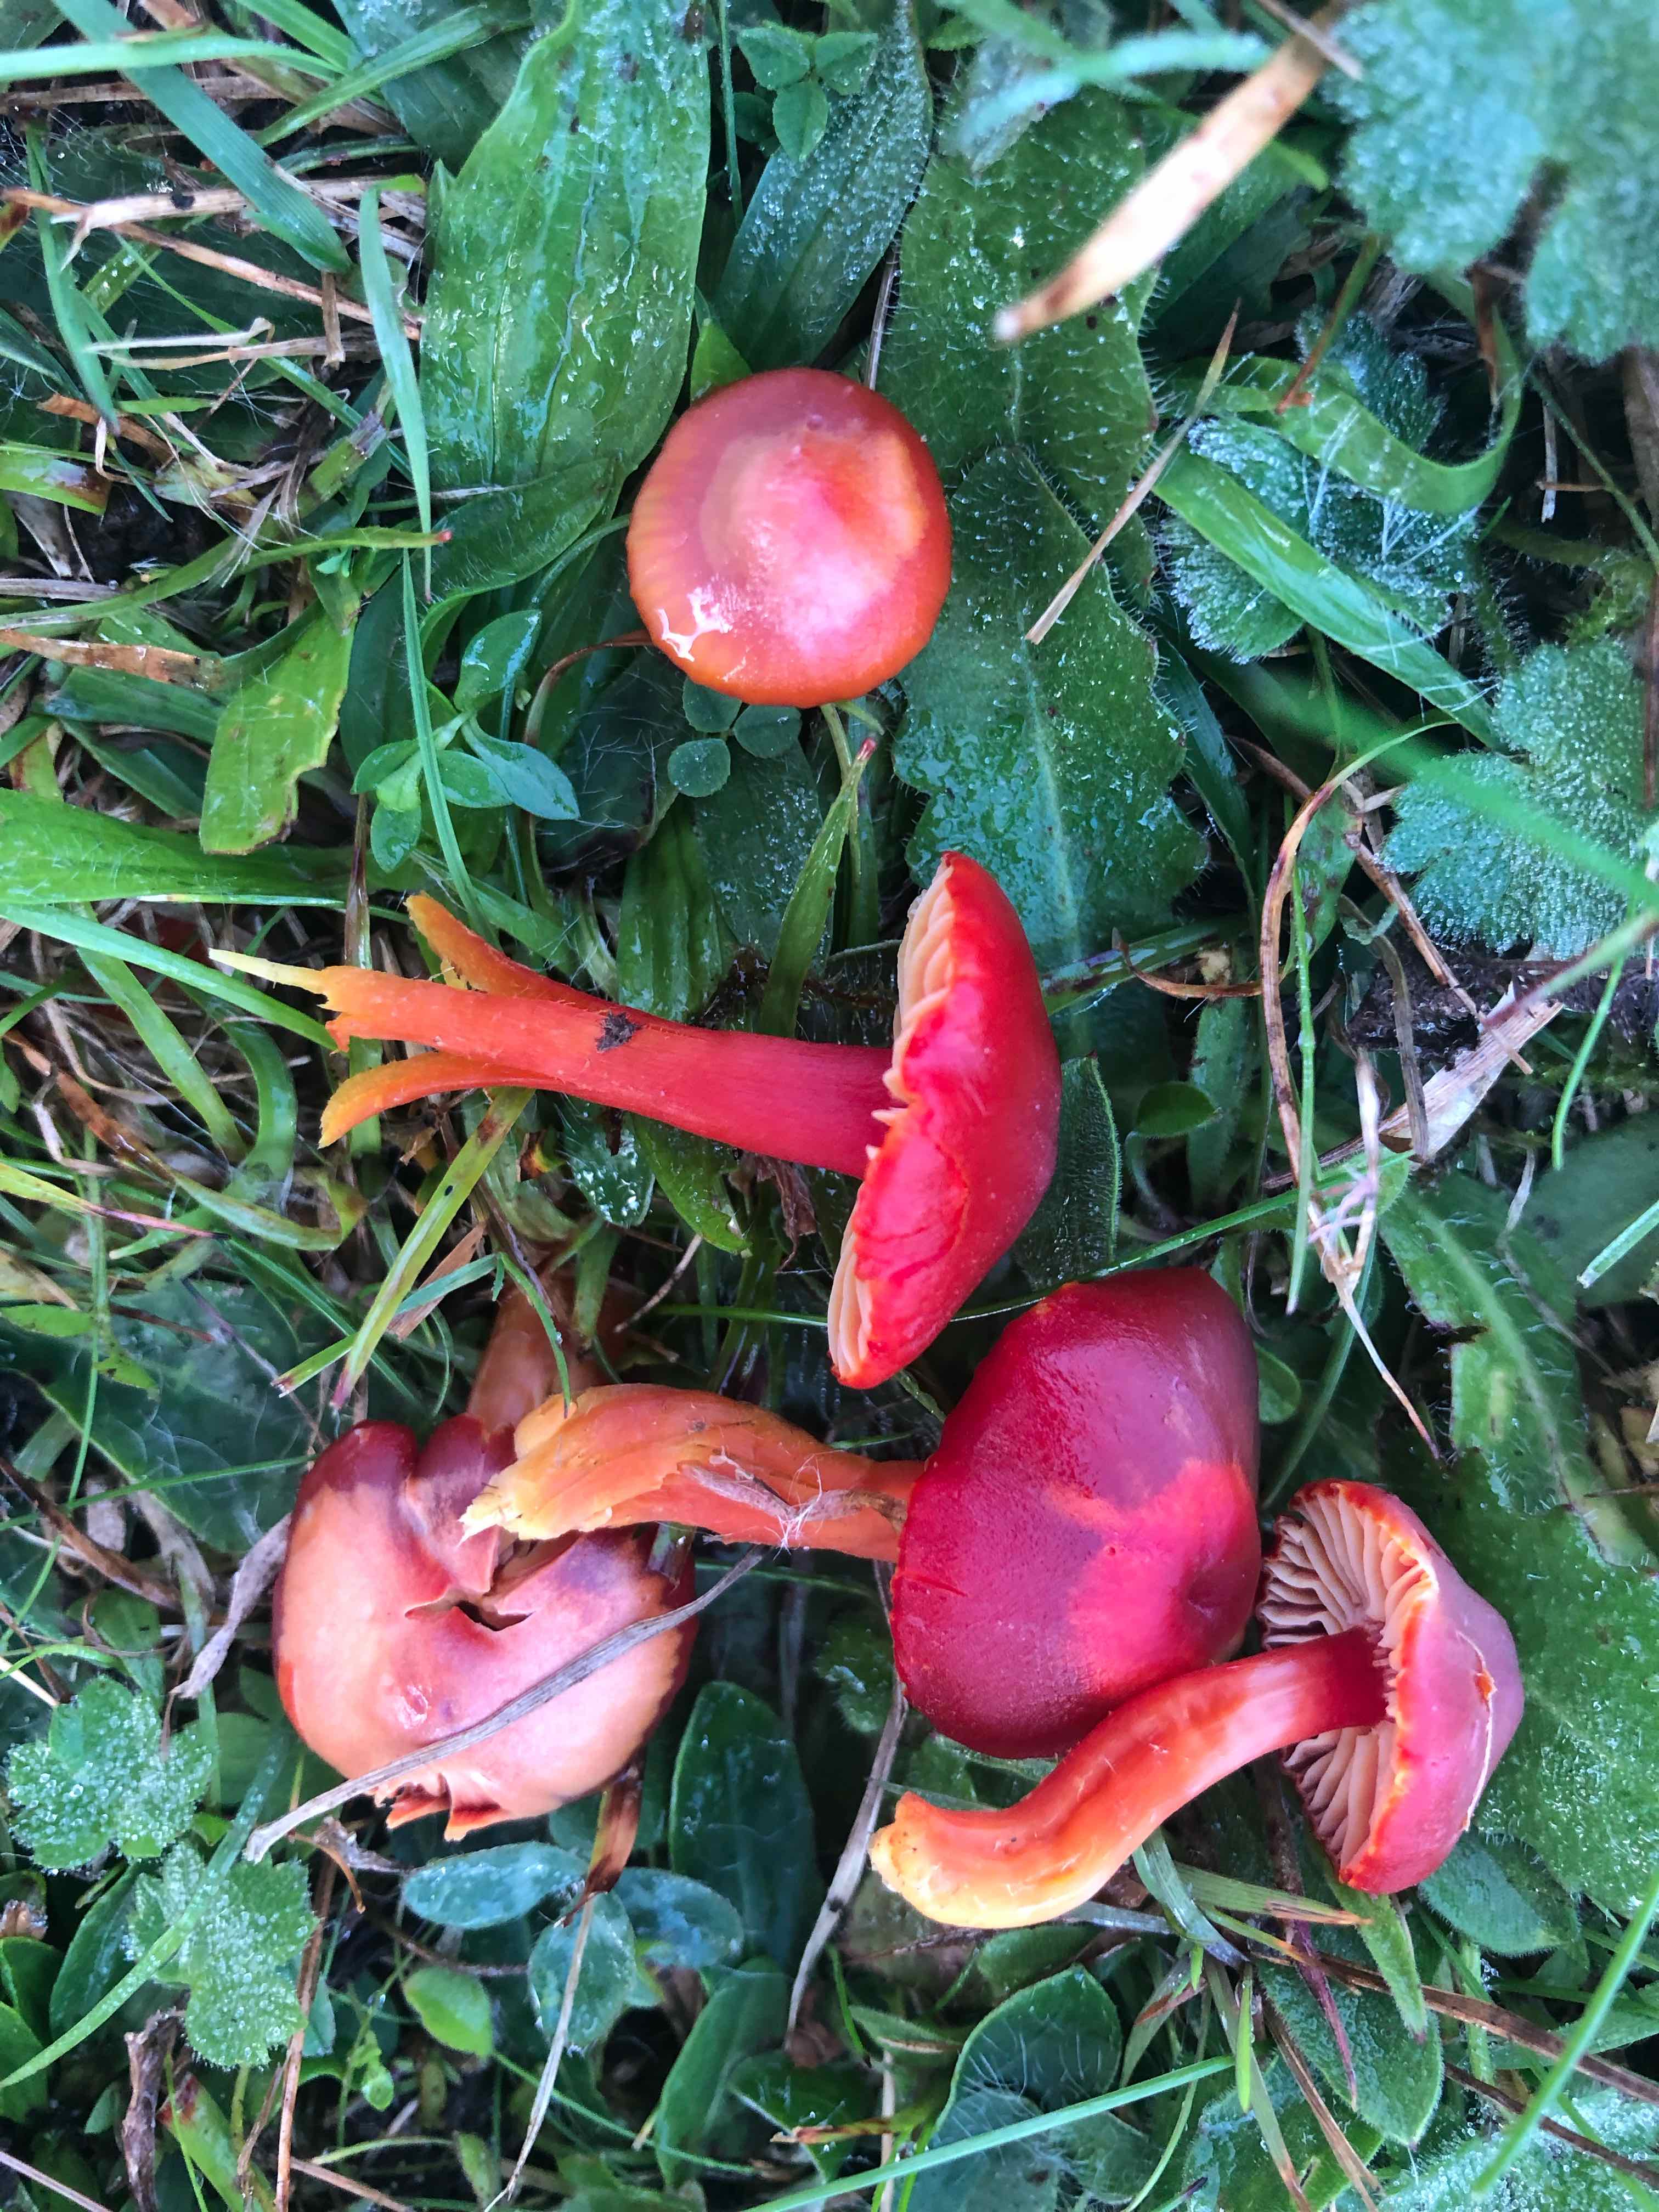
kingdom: Fungi
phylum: Basidiomycota
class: Agaricomycetes
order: Agaricales
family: Hygrophoraceae
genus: Hygrocybe
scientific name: Hygrocybe coccinea
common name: cinnober-vokshat
